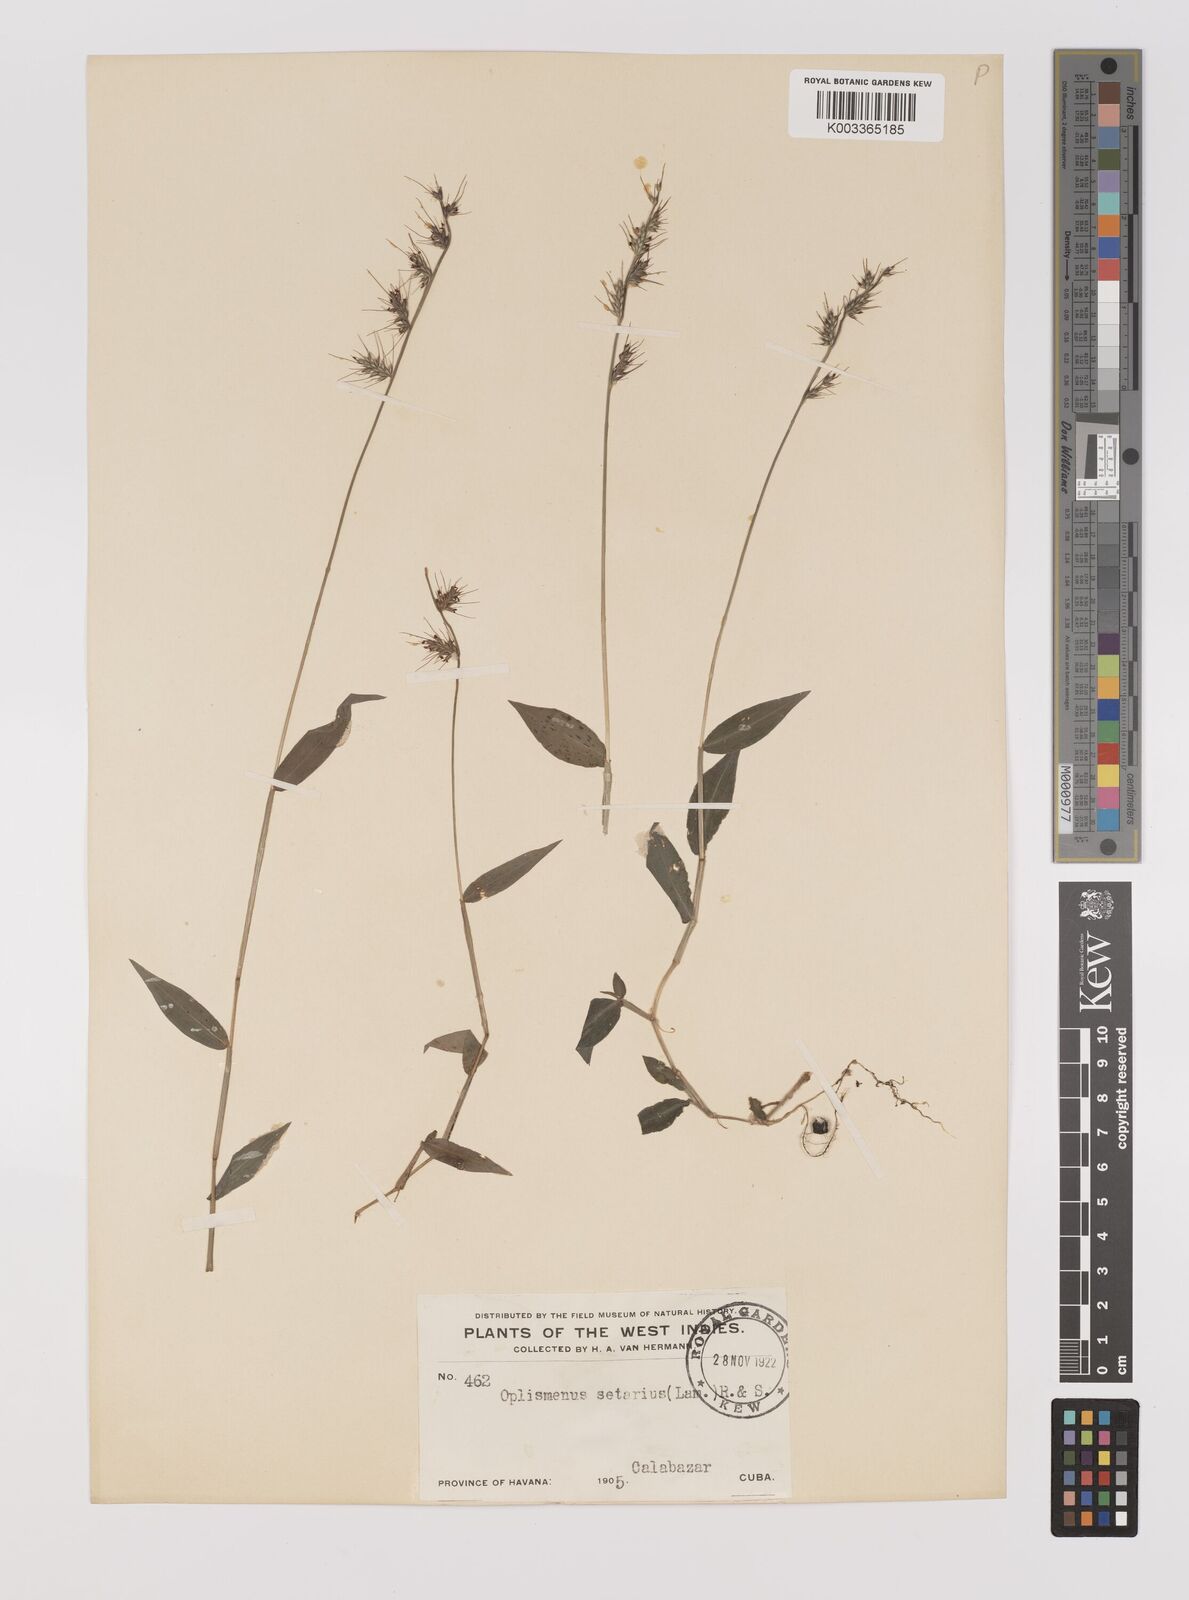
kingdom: Plantae
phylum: Tracheophyta
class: Liliopsida
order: Poales
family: Poaceae
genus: Oplismenus
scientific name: Oplismenus hirtellus
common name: Basketgrass
